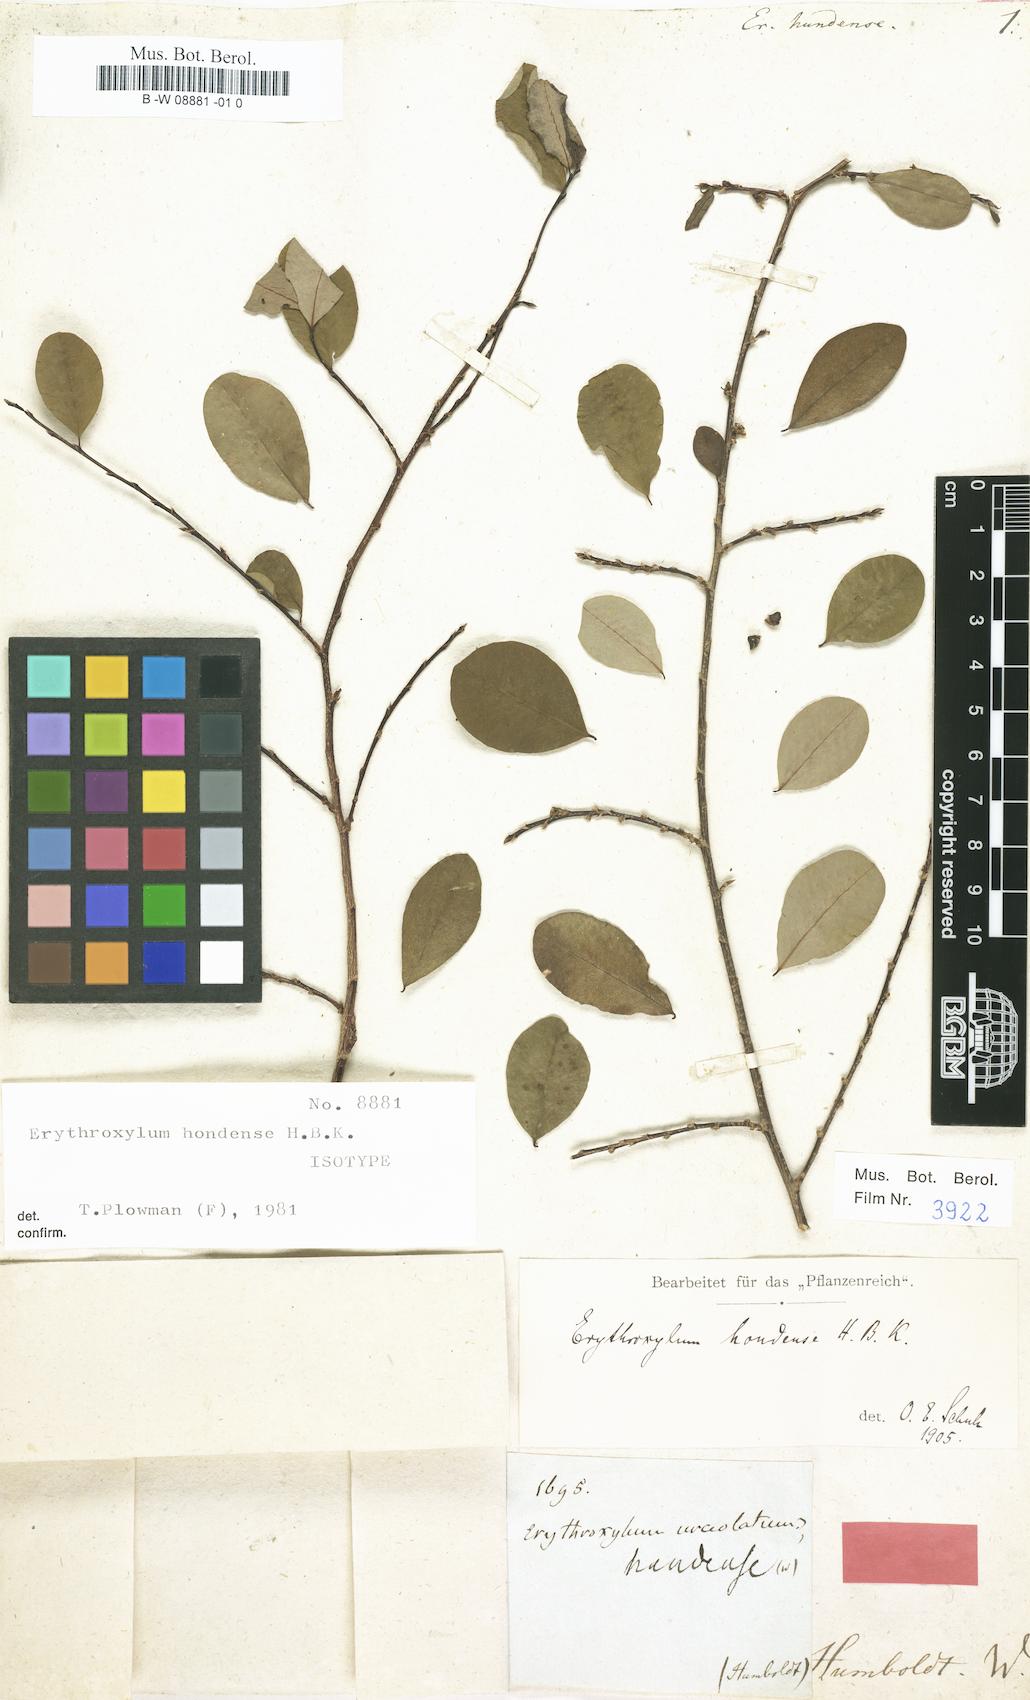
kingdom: Plantae
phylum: Tracheophyta
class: Magnoliopsida
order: Malpighiales
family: Erythroxylaceae
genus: Erythroxylum
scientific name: Erythroxylum
